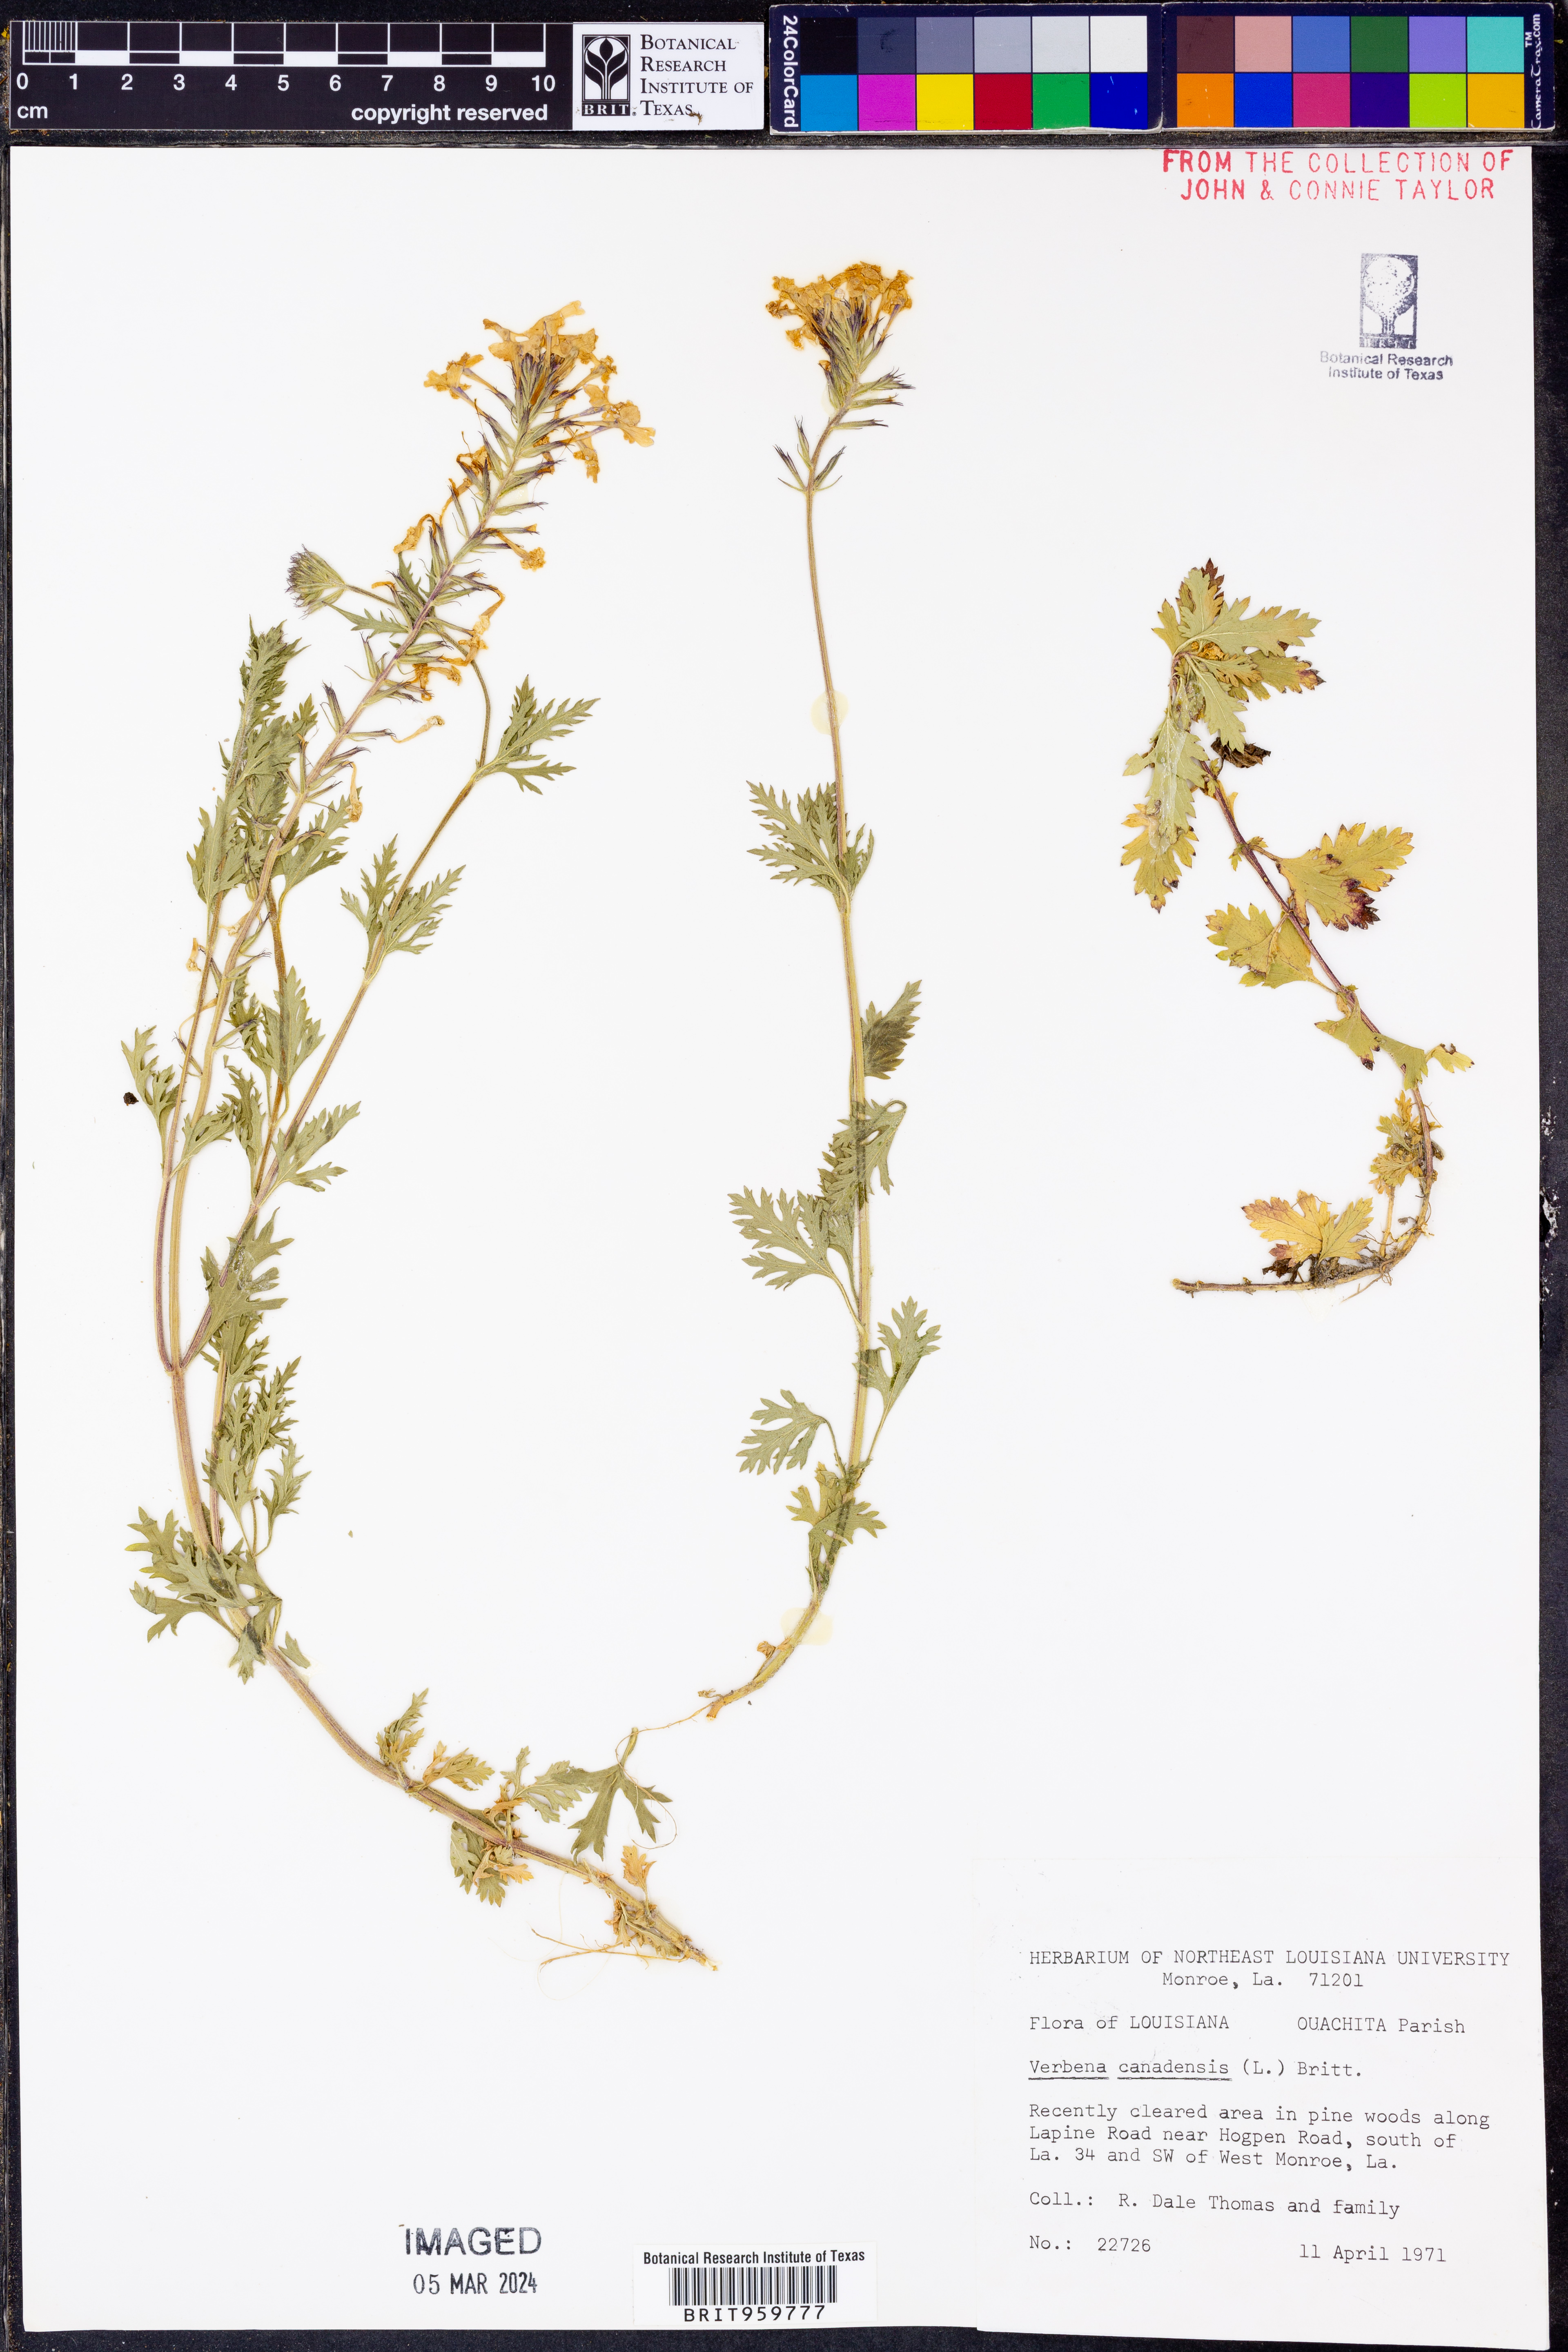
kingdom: Plantae
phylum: Tracheophyta
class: Magnoliopsida
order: Lamiales
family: Verbenaceae
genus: Verbena
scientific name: Verbena canadensis
